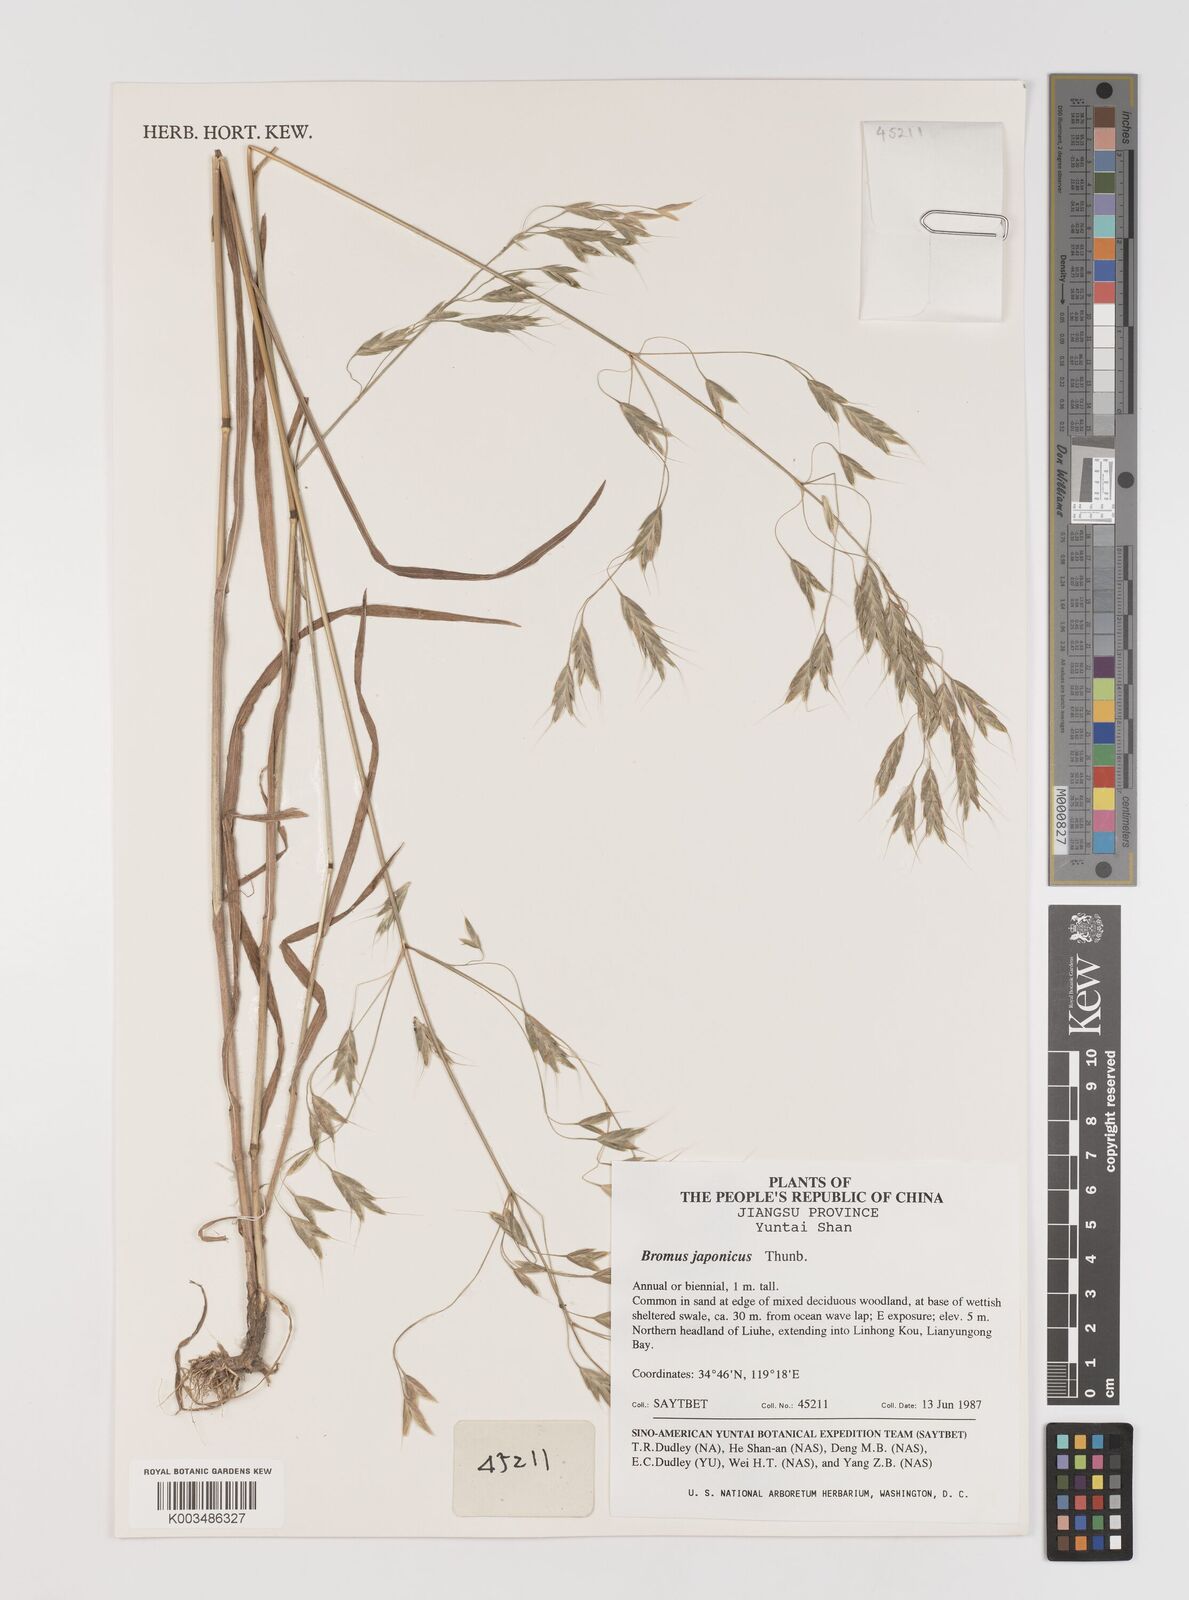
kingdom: Plantae
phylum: Tracheophyta
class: Liliopsida
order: Poales
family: Poaceae
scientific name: Poaceae
